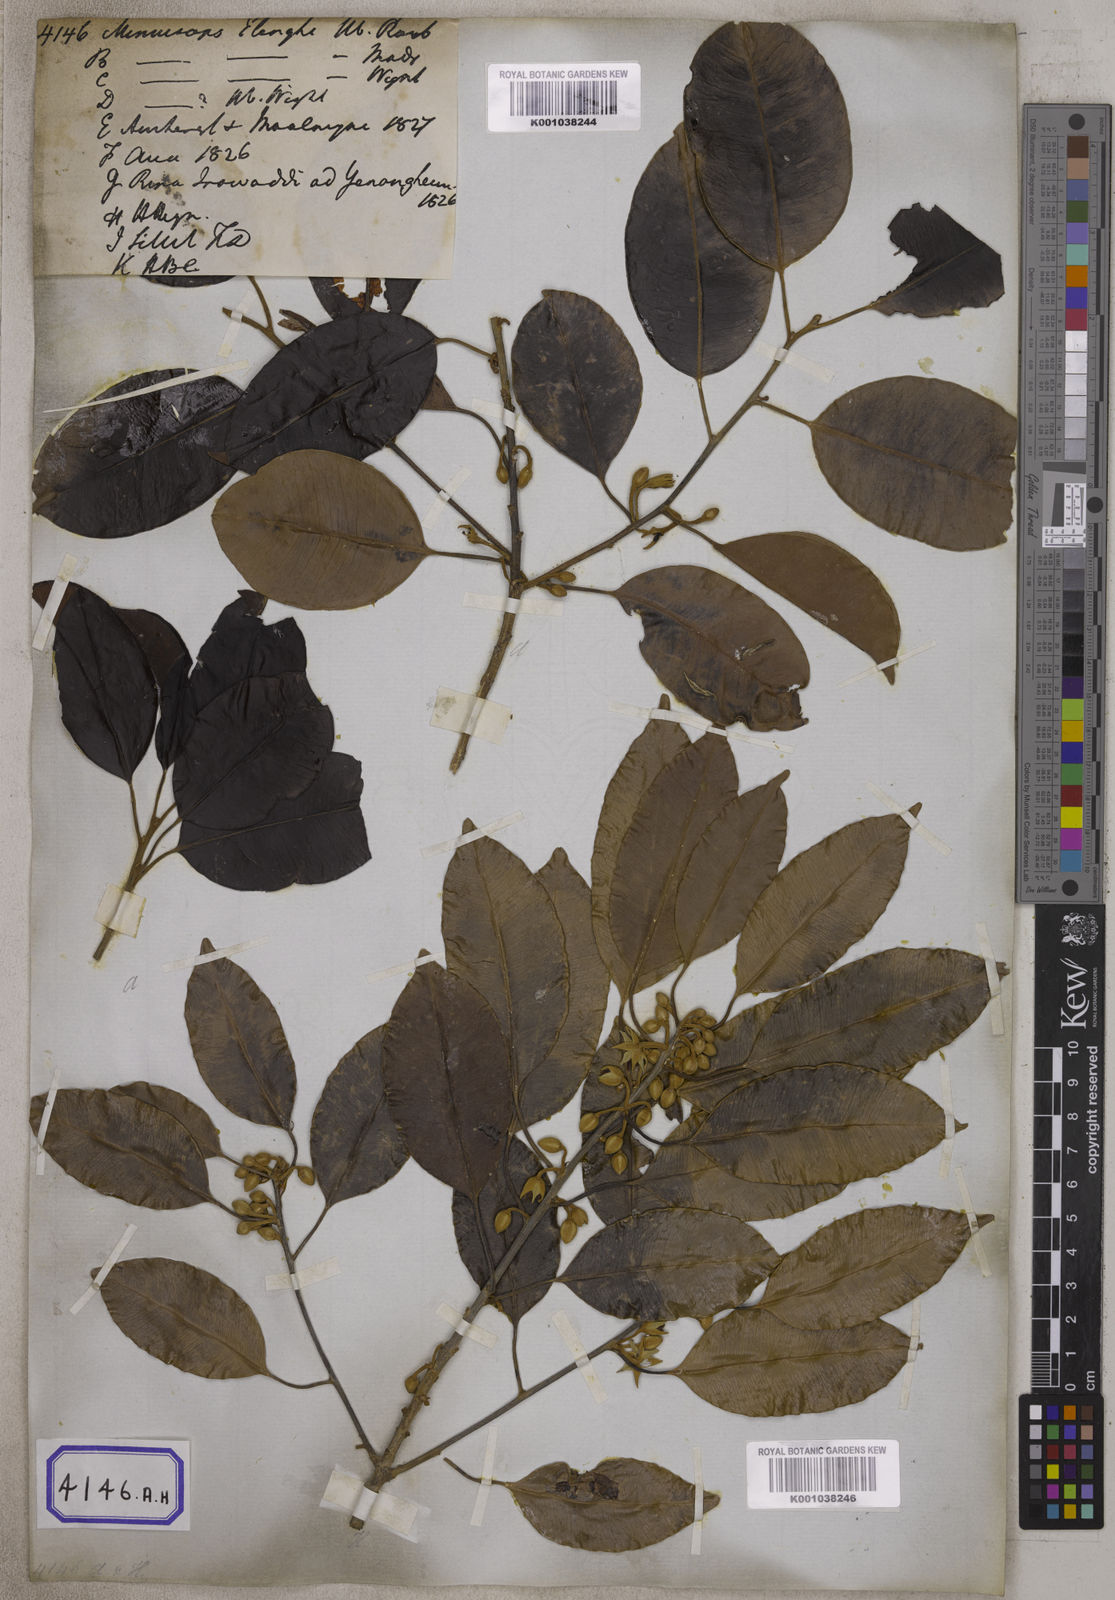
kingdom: Plantae
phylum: Tracheophyta
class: Magnoliopsida
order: Ericales
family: Sapotaceae
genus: Mimusops
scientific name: Mimusops
